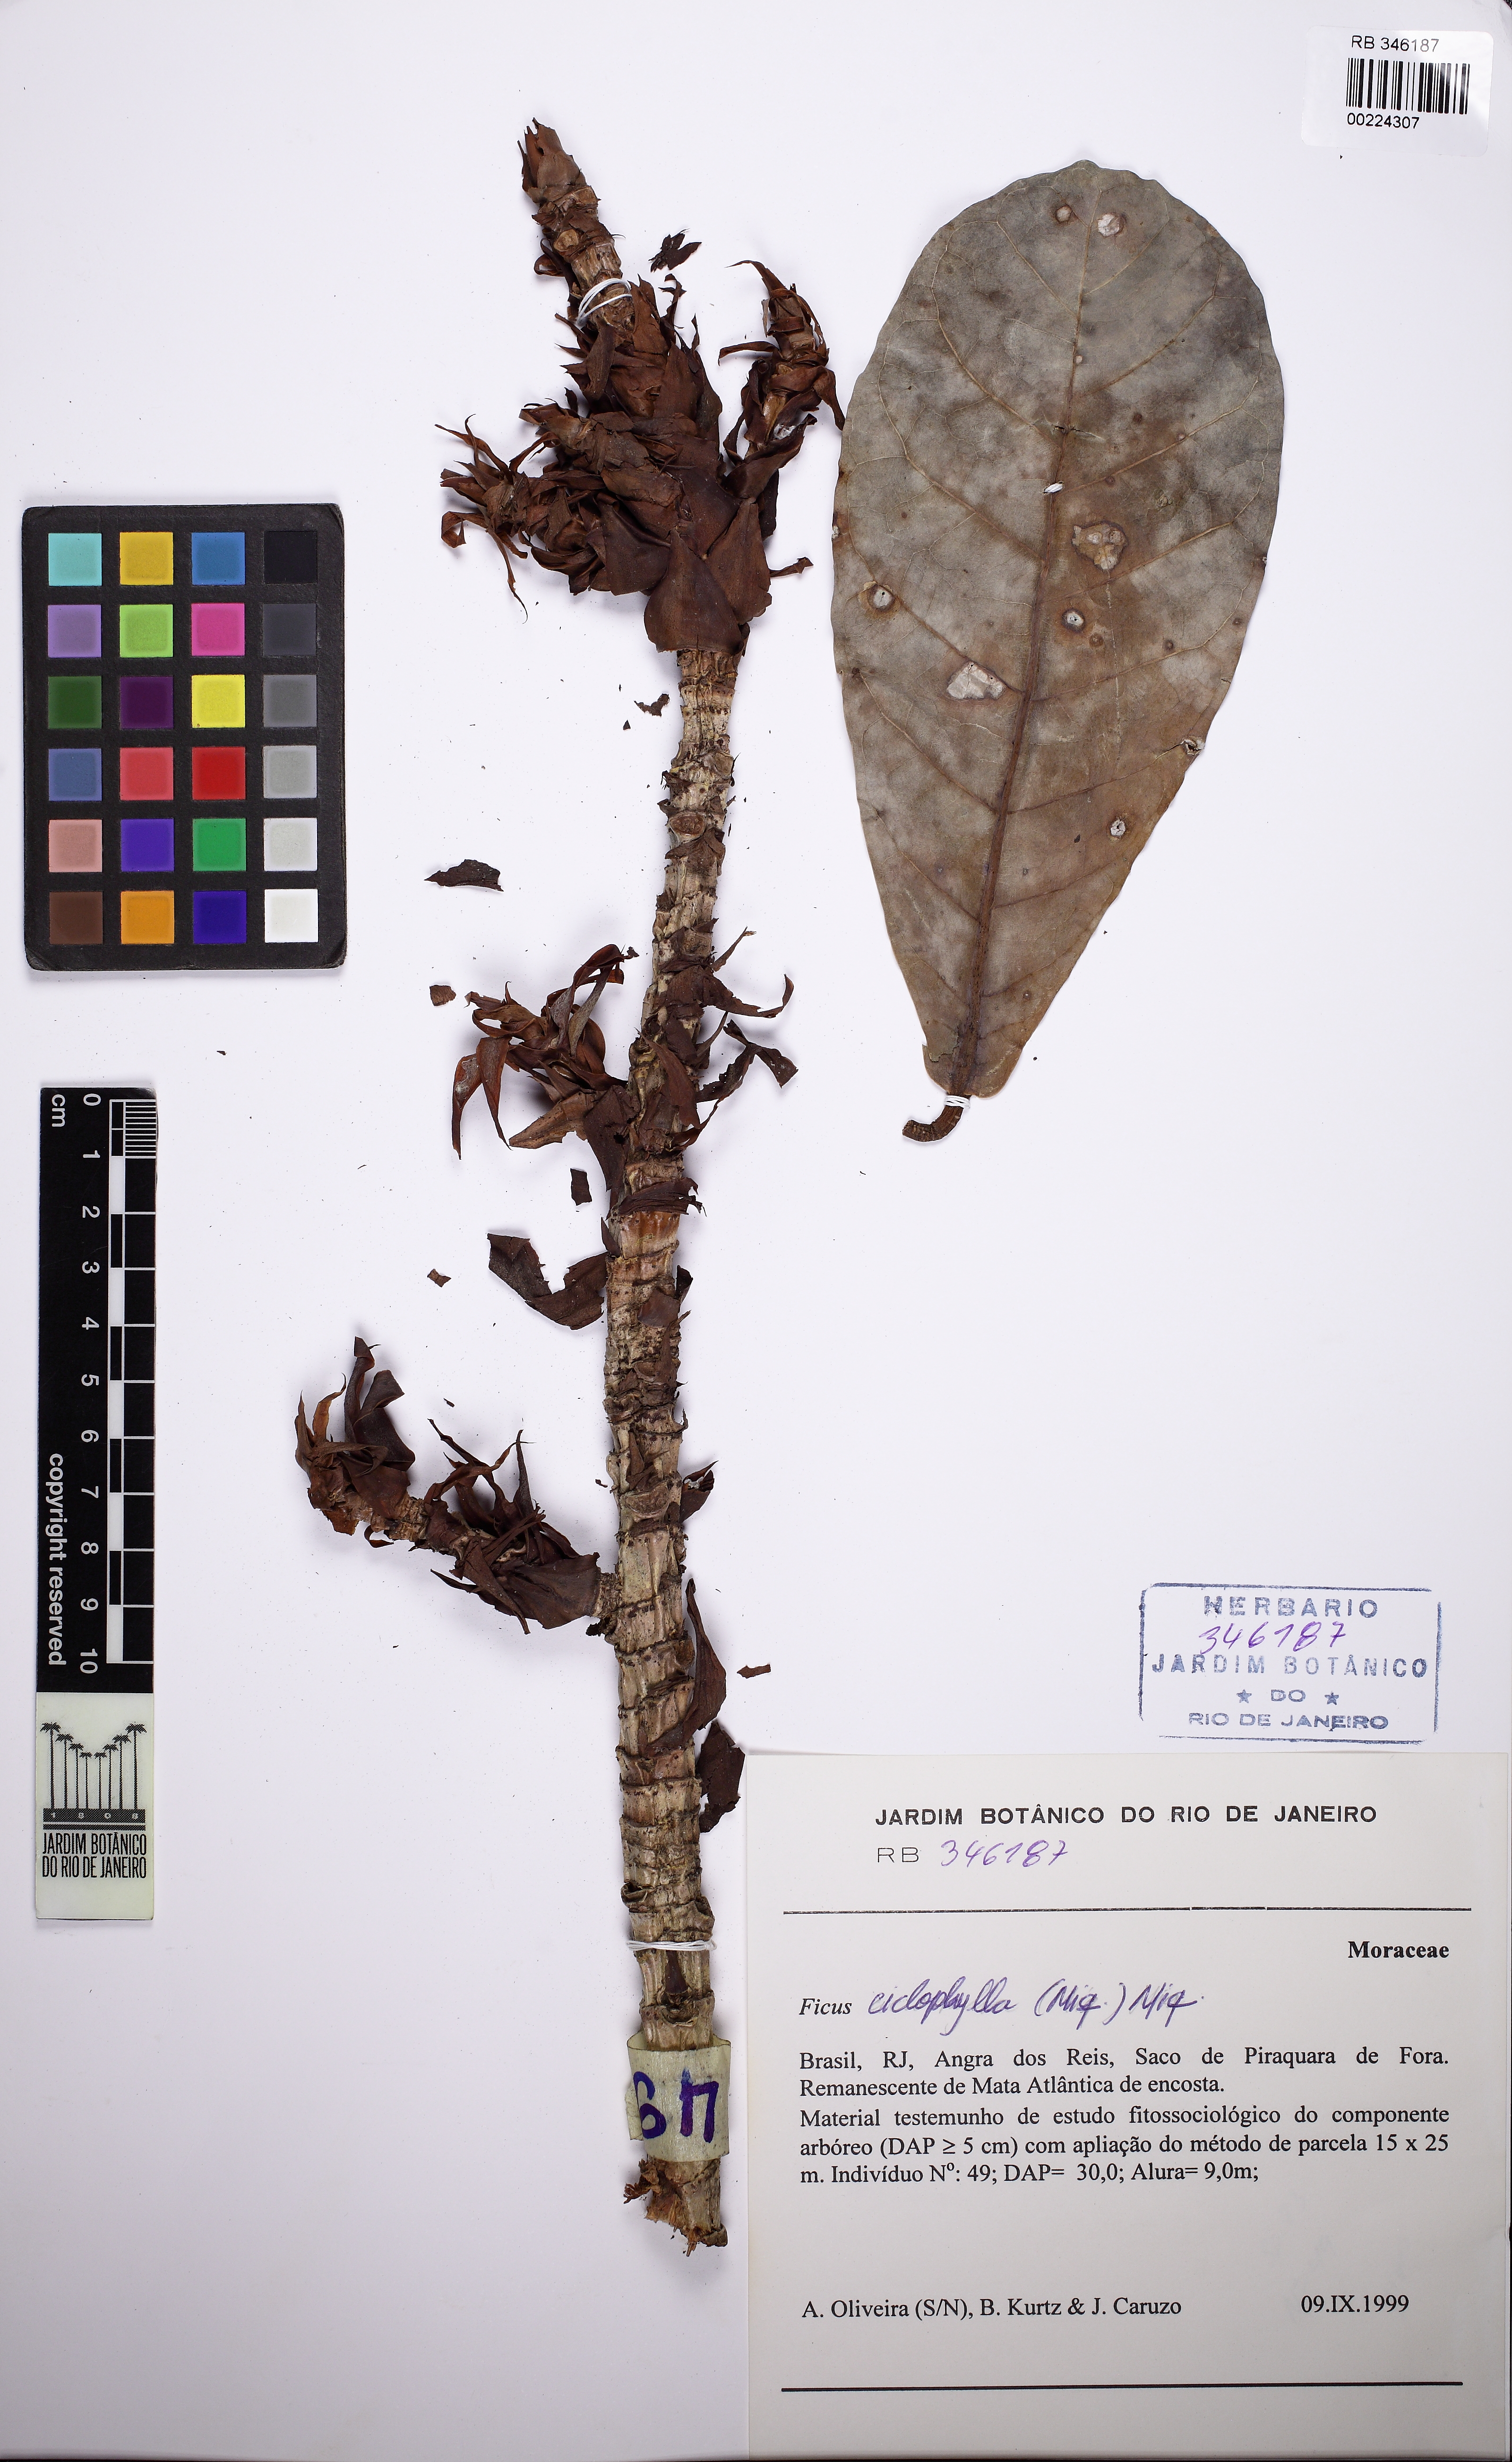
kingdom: Plantae
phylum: Tracheophyta
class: Magnoliopsida
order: Rosales
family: Moraceae
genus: Ficus
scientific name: Ficus
